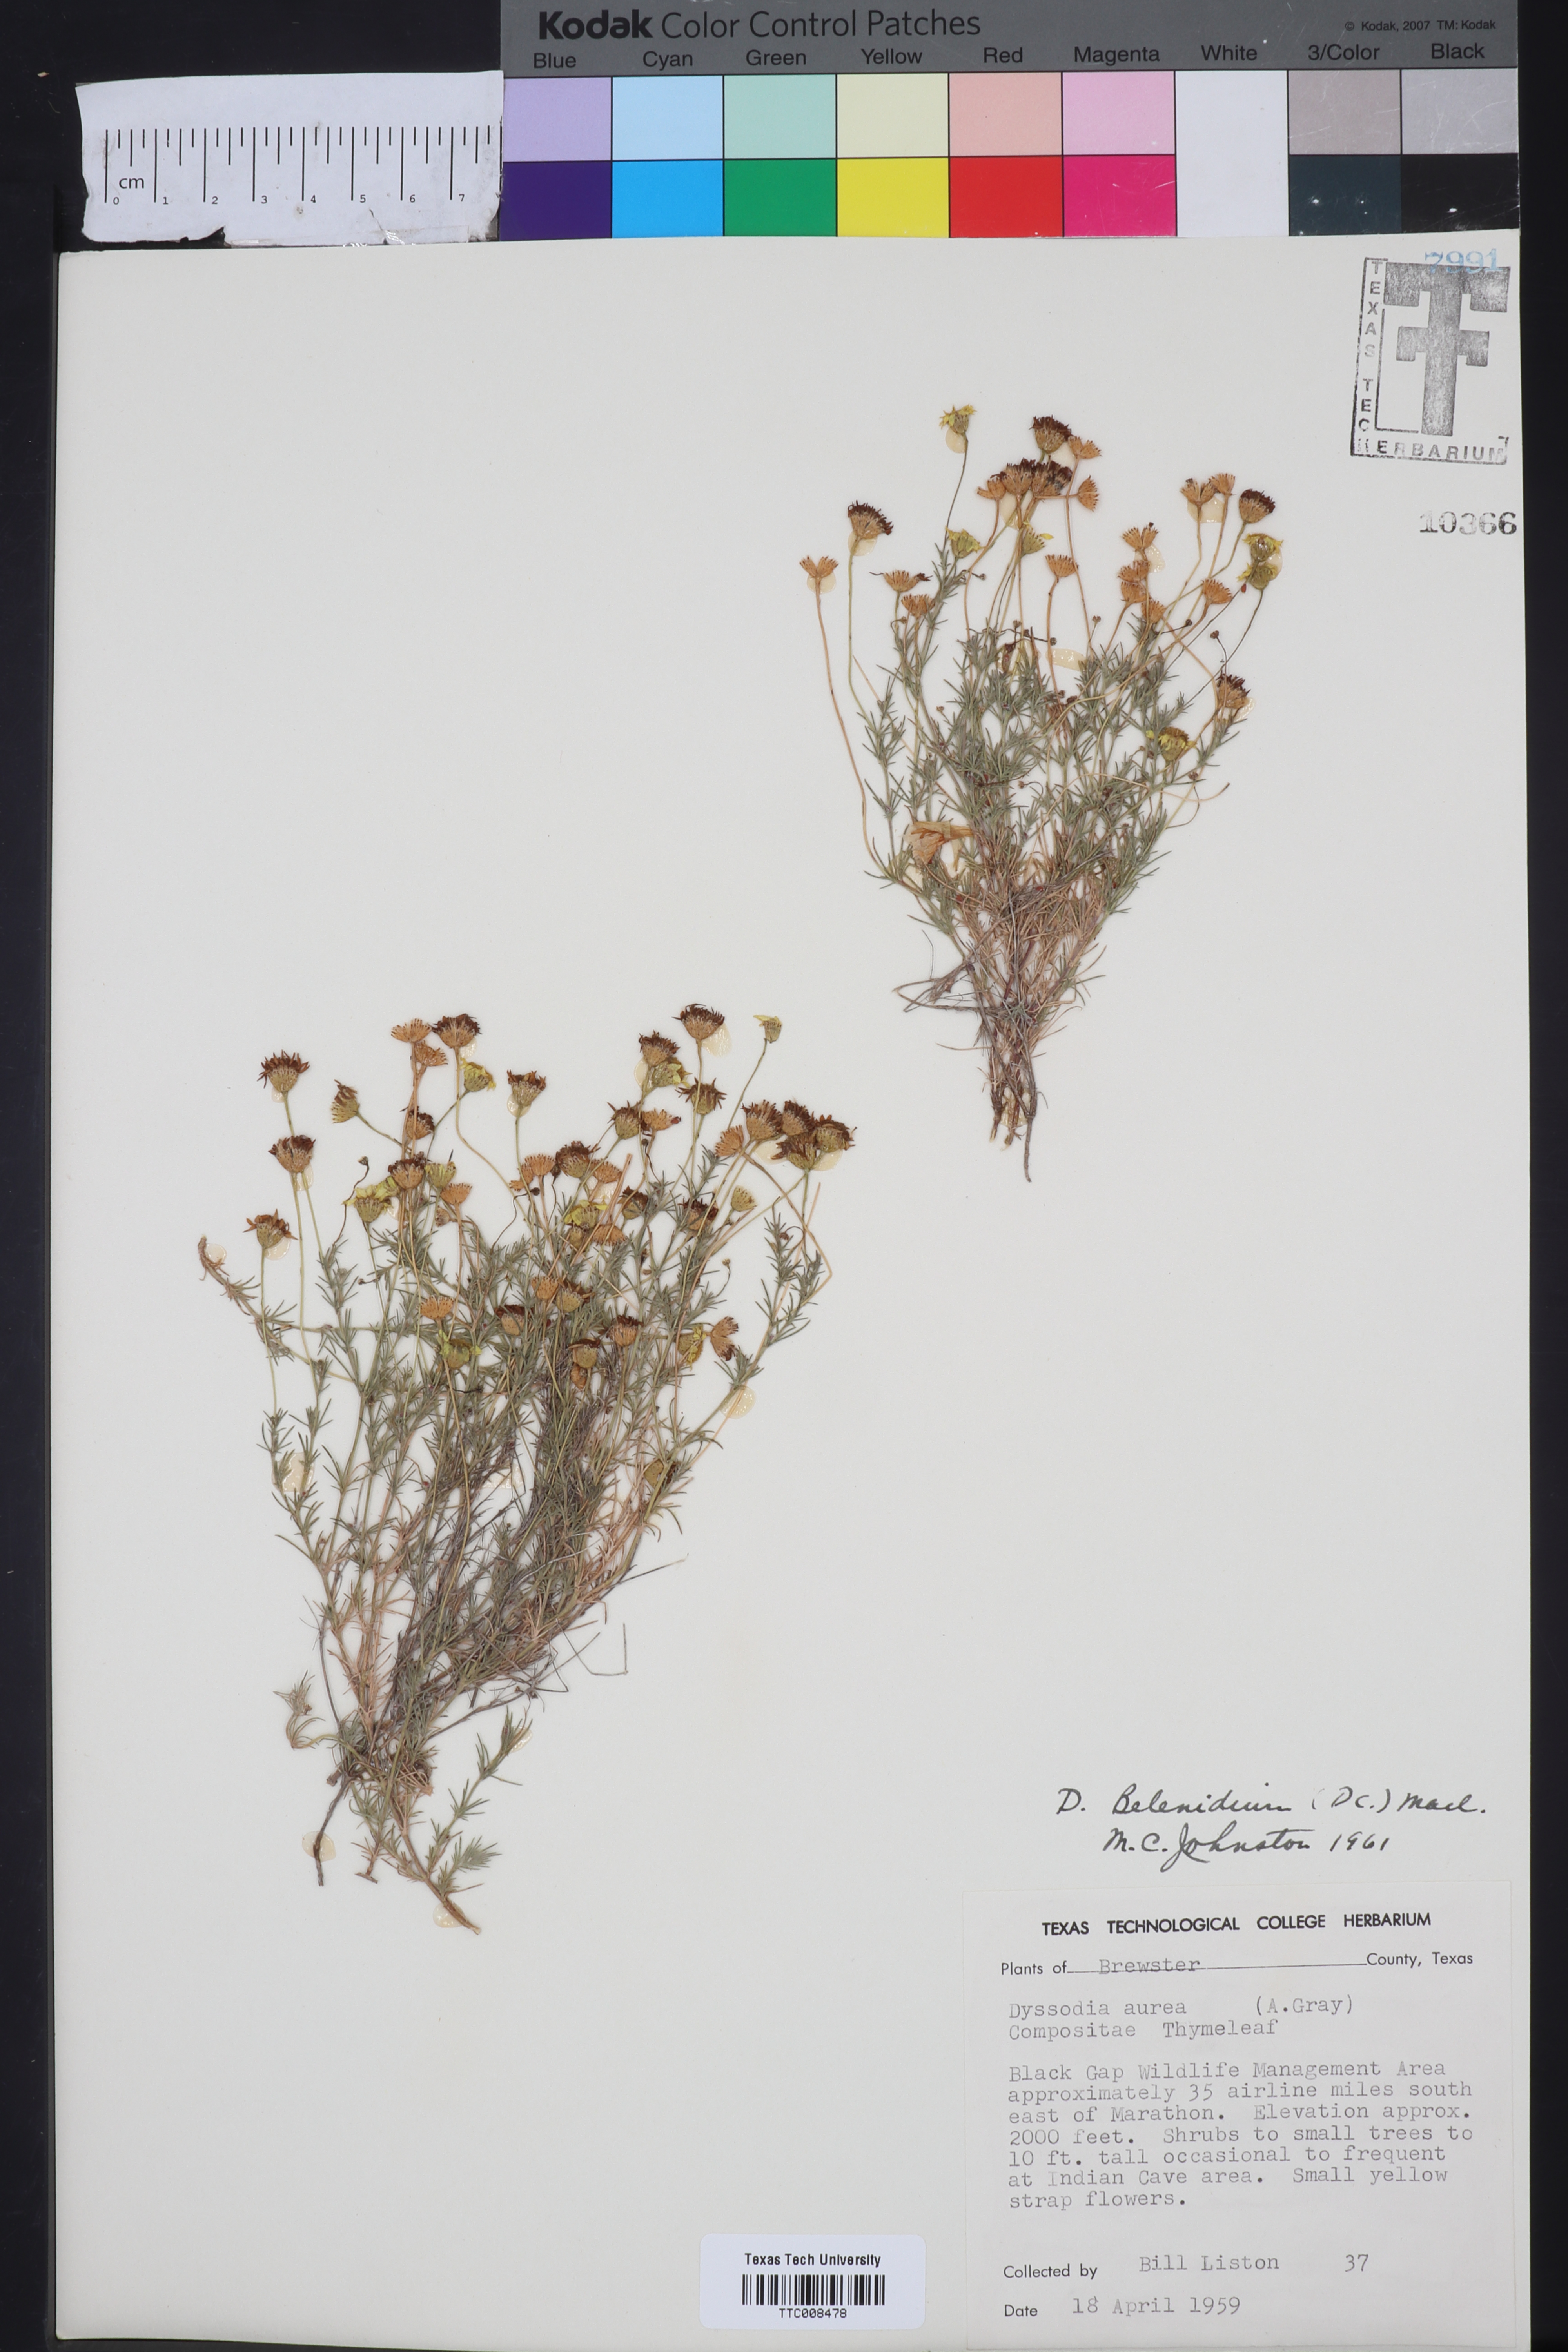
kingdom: Plantae
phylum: Tracheophyta
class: Magnoliopsida
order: Asterales
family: Asteraceae
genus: Thymophylla
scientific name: Thymophylla pentachaeta
